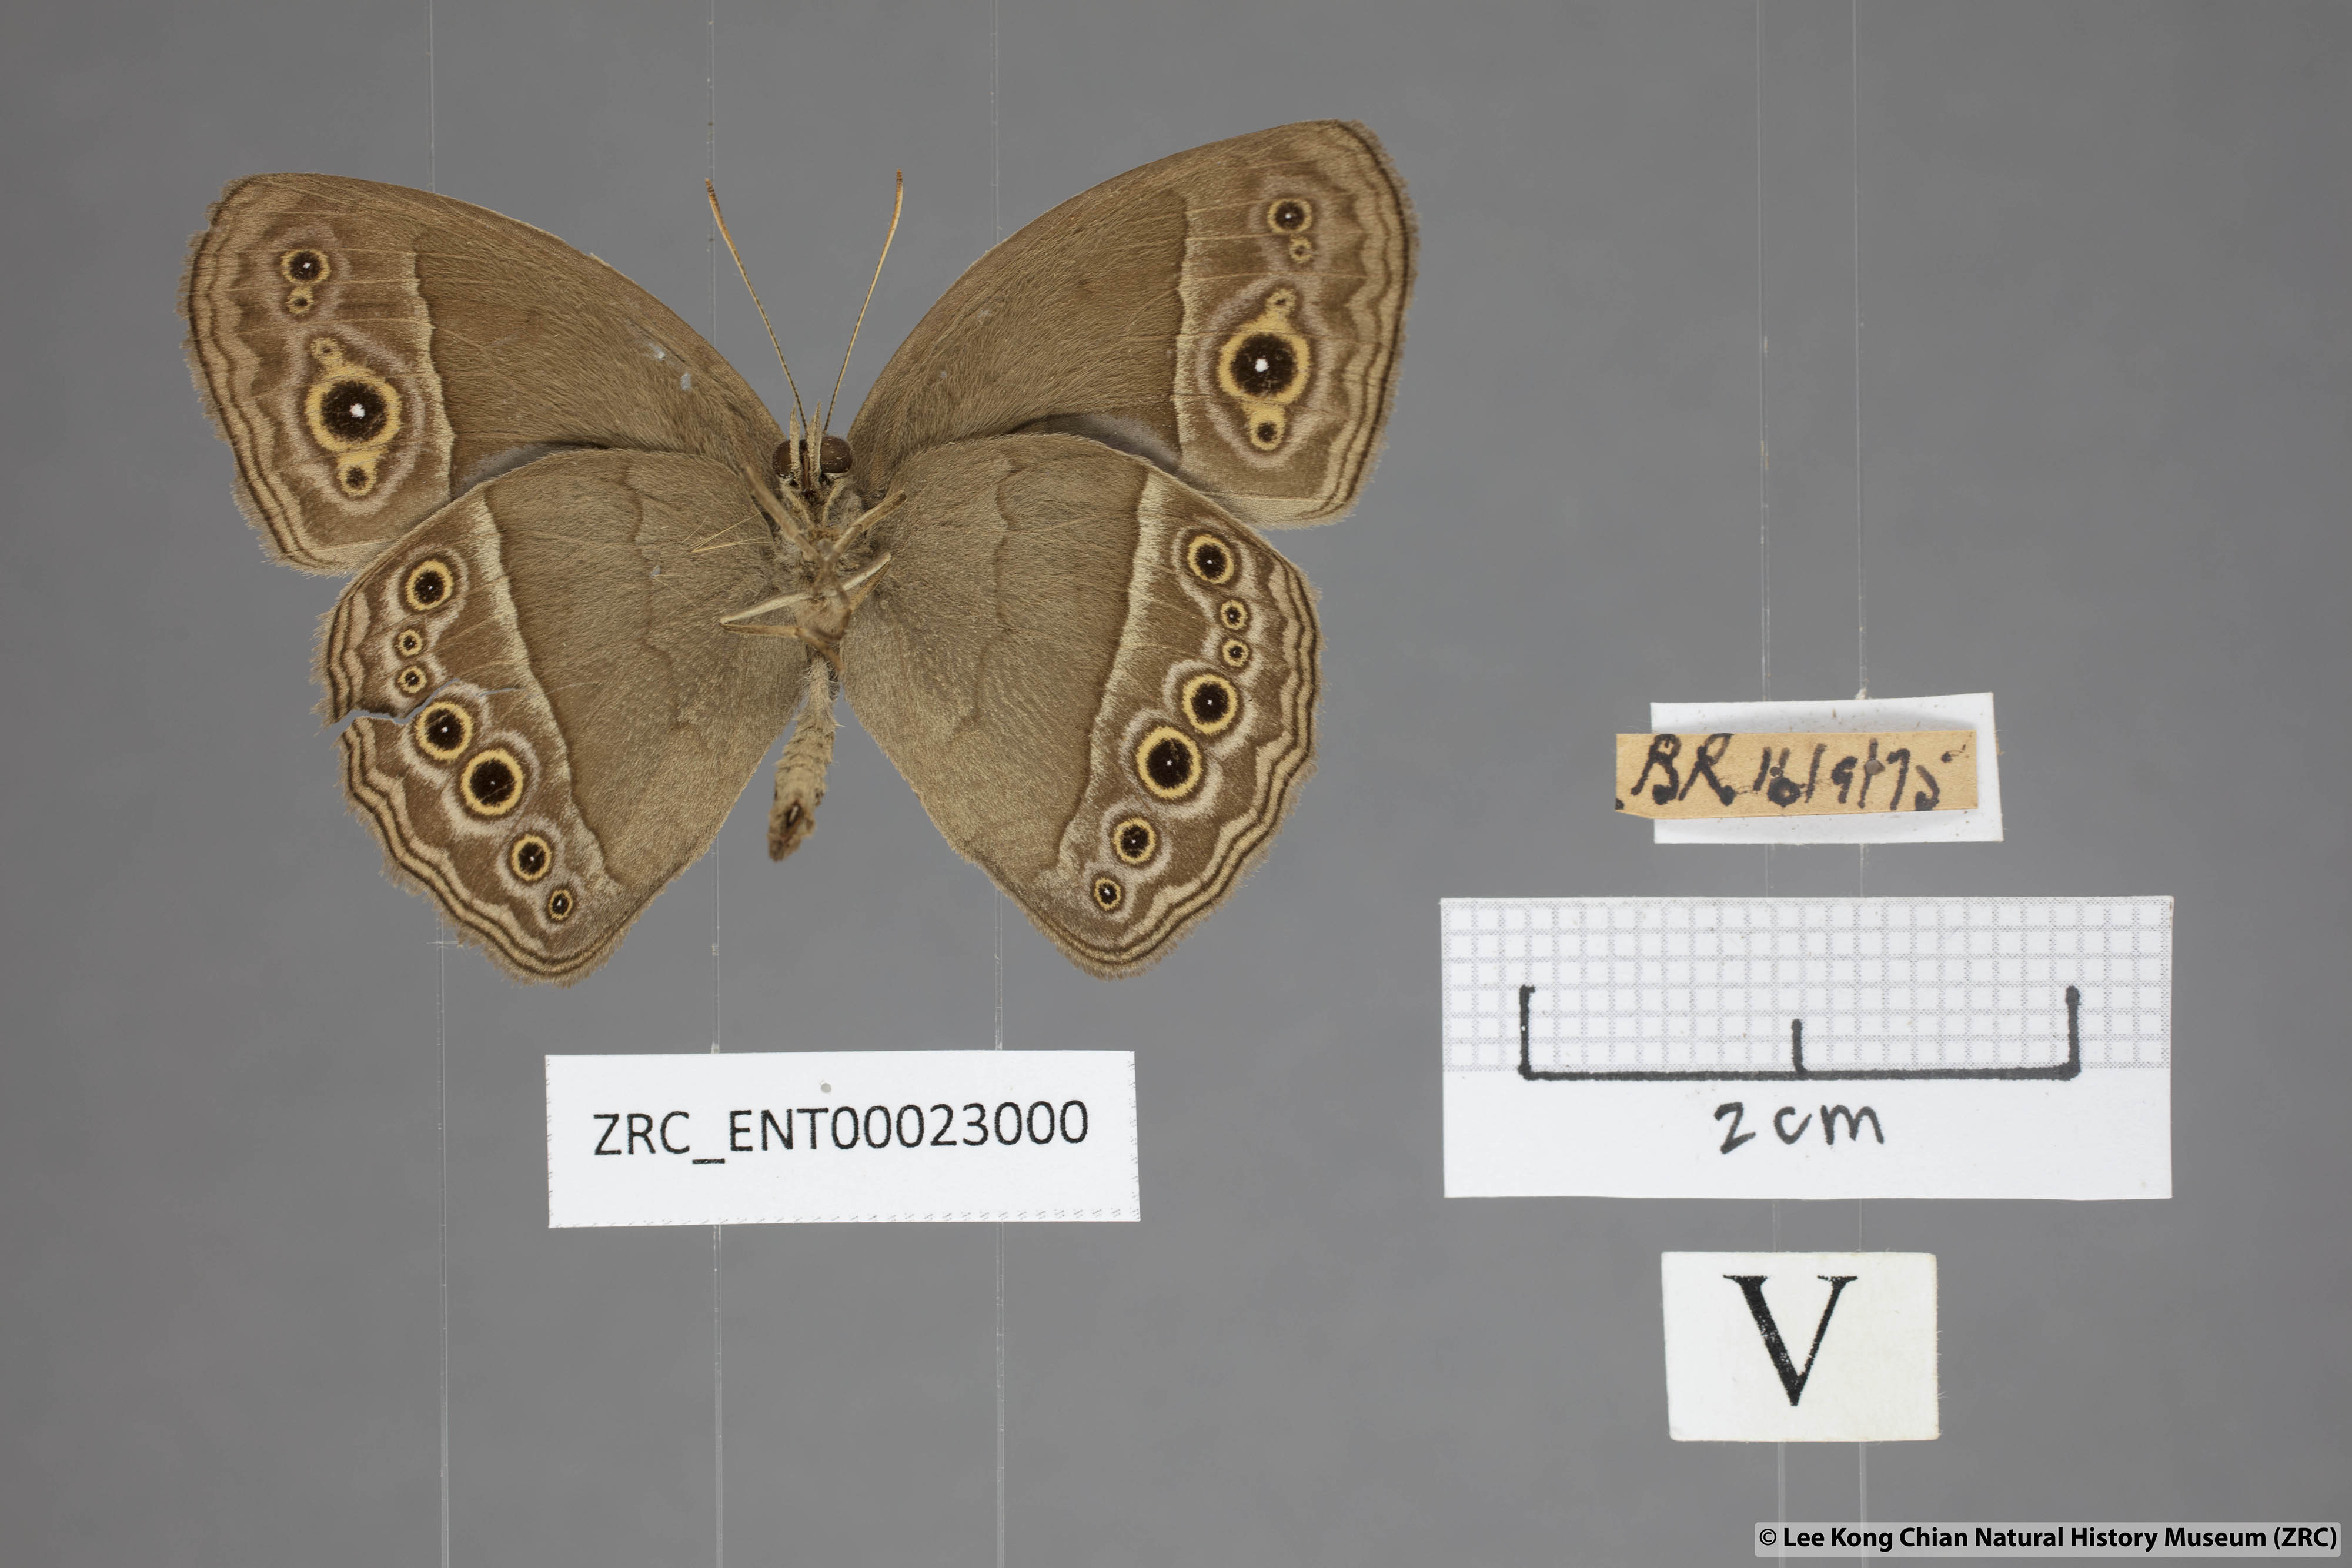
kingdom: Animalia
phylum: Arthropoda
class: Insecta
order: Lepidoptera
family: Nymphalidae
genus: Mycalesis
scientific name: Mycalesis perseoides
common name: Burmese bushbrown
